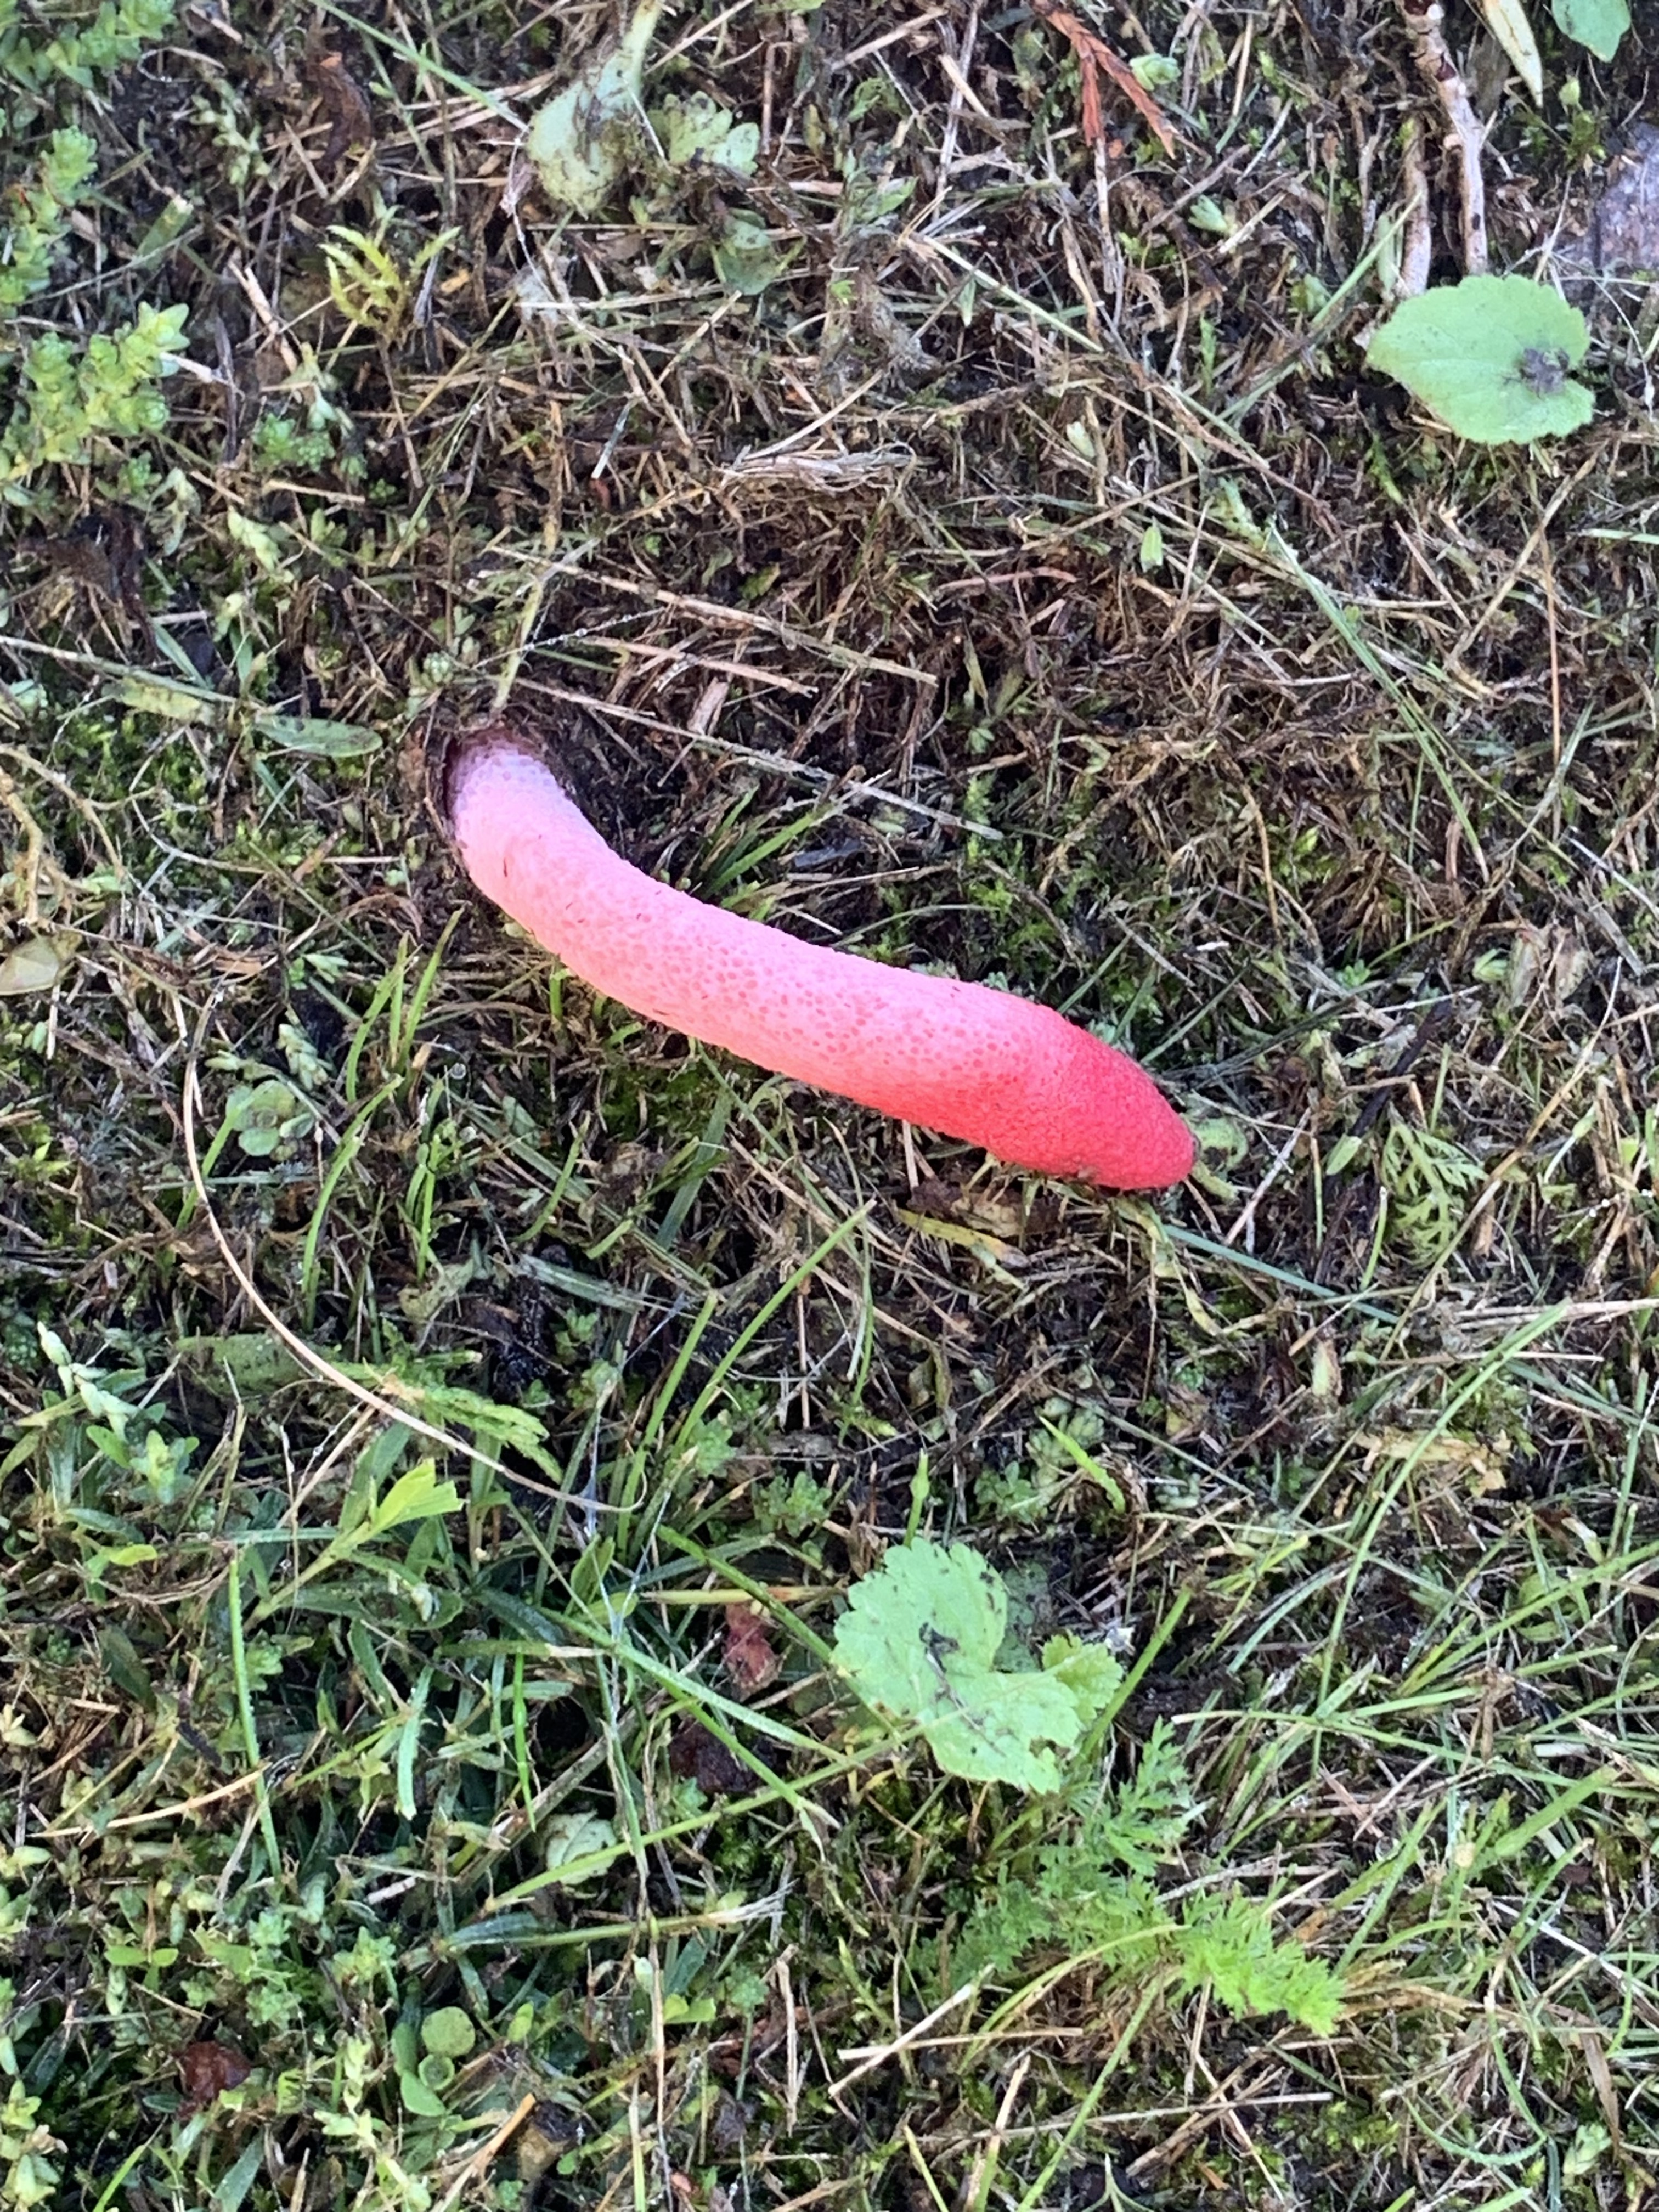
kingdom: Fungi
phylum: Basidiomycota
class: Agaricomycetes
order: Phallales
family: Phallaceae
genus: Mutinus
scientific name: Mutinus ravenelii
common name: Red stinkhorn
